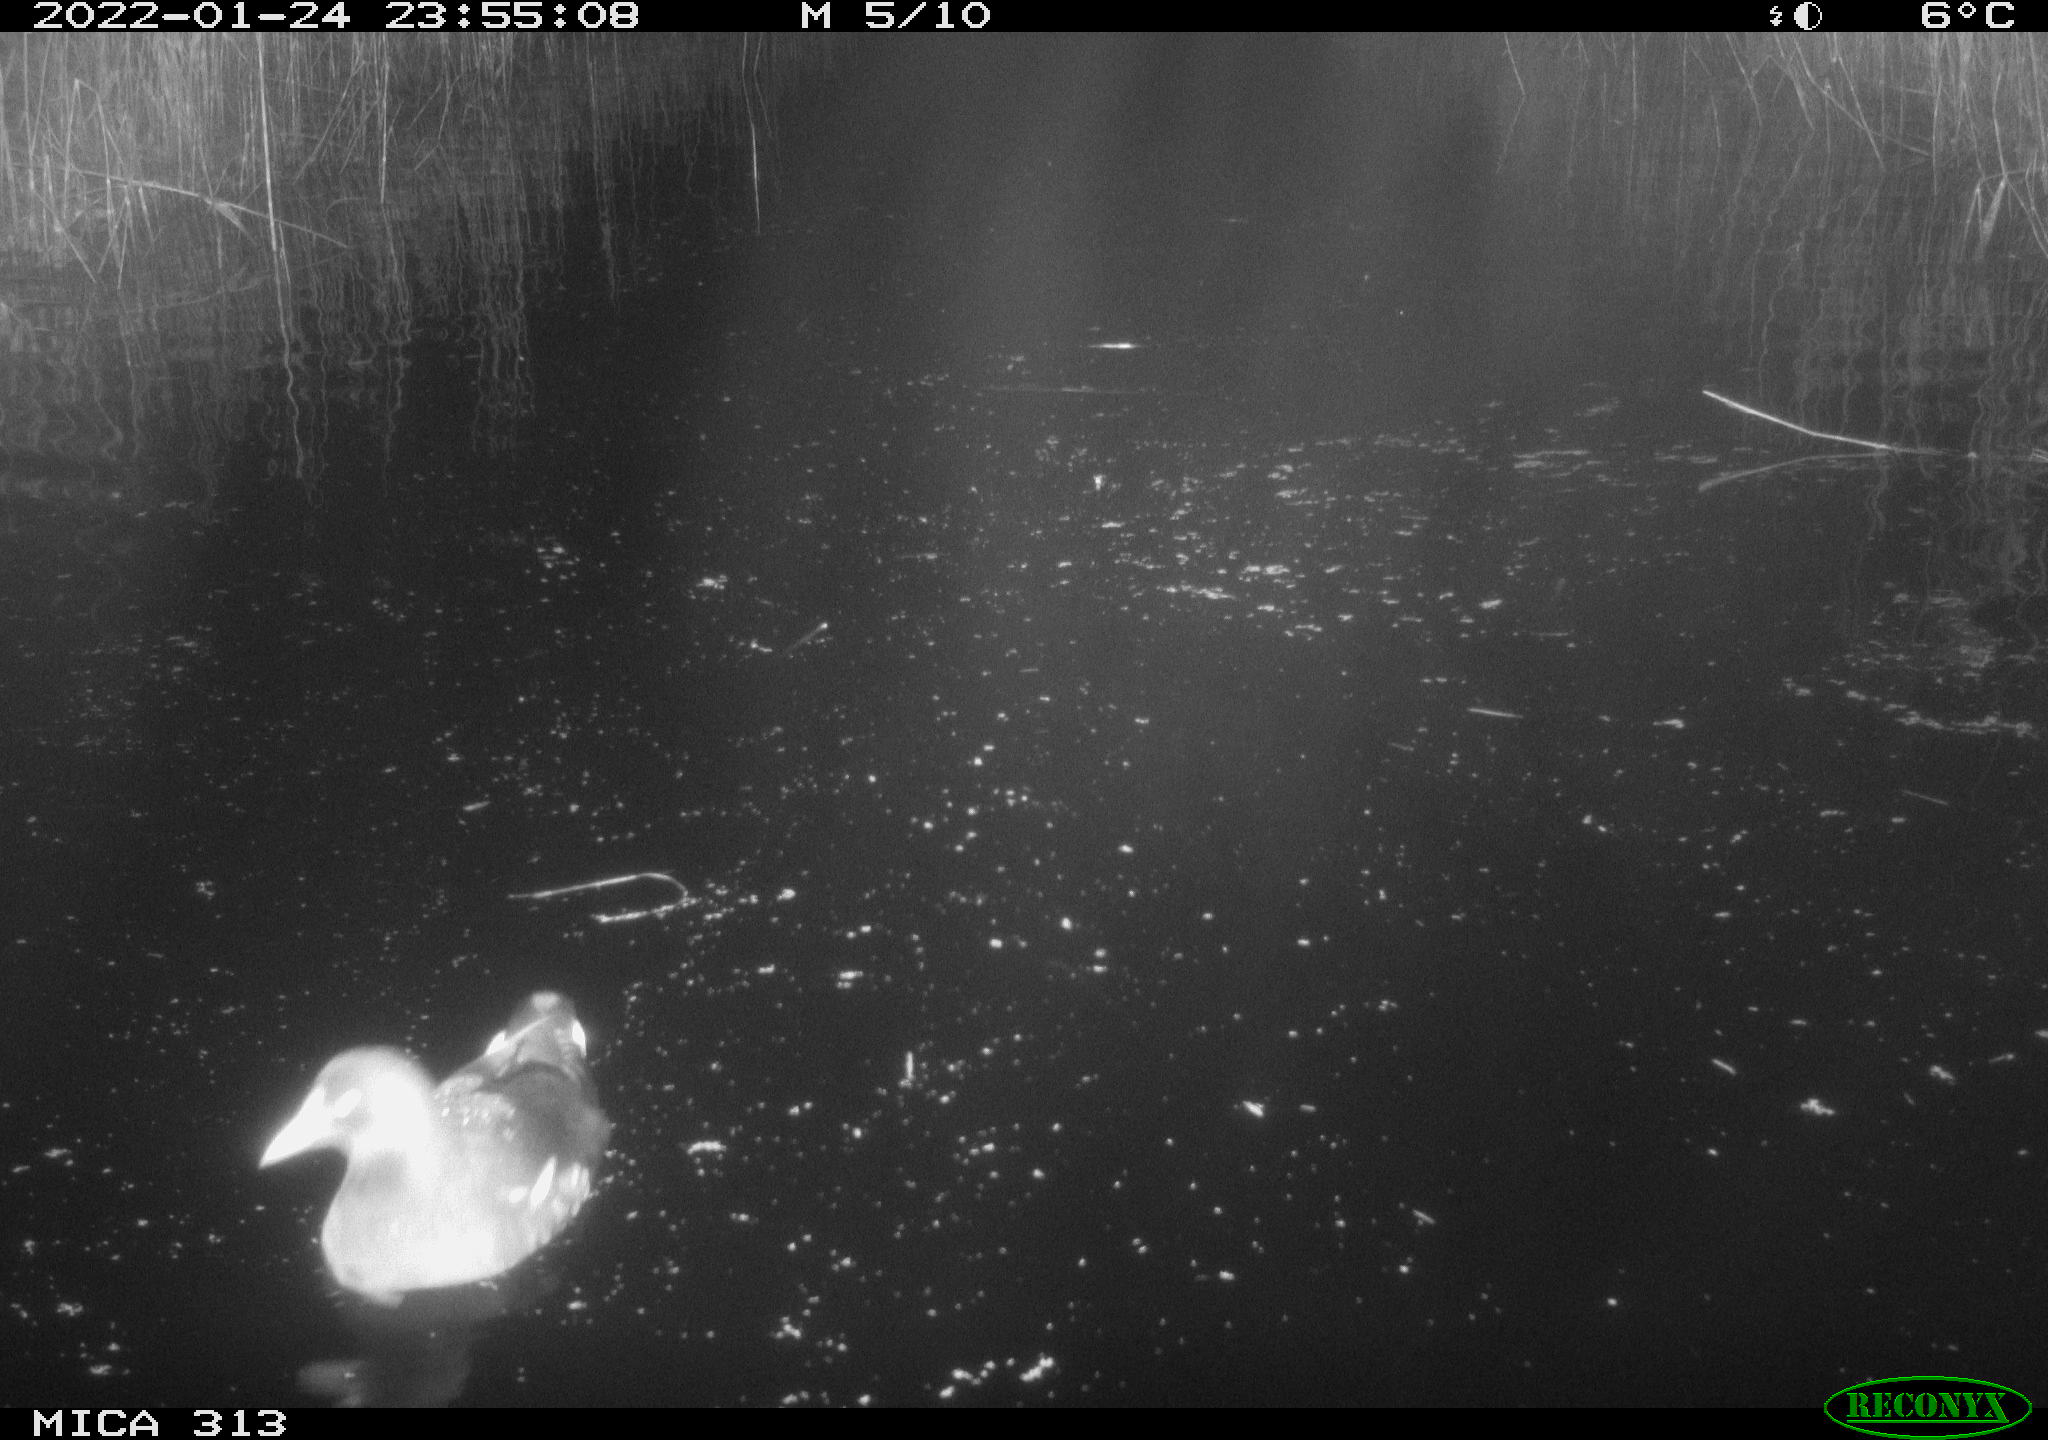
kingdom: Animalia
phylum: Chordata
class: Aves
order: Gruiformes
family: Rallidae
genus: Gallinula
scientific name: Gallinula chloropus
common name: Common moorhen
